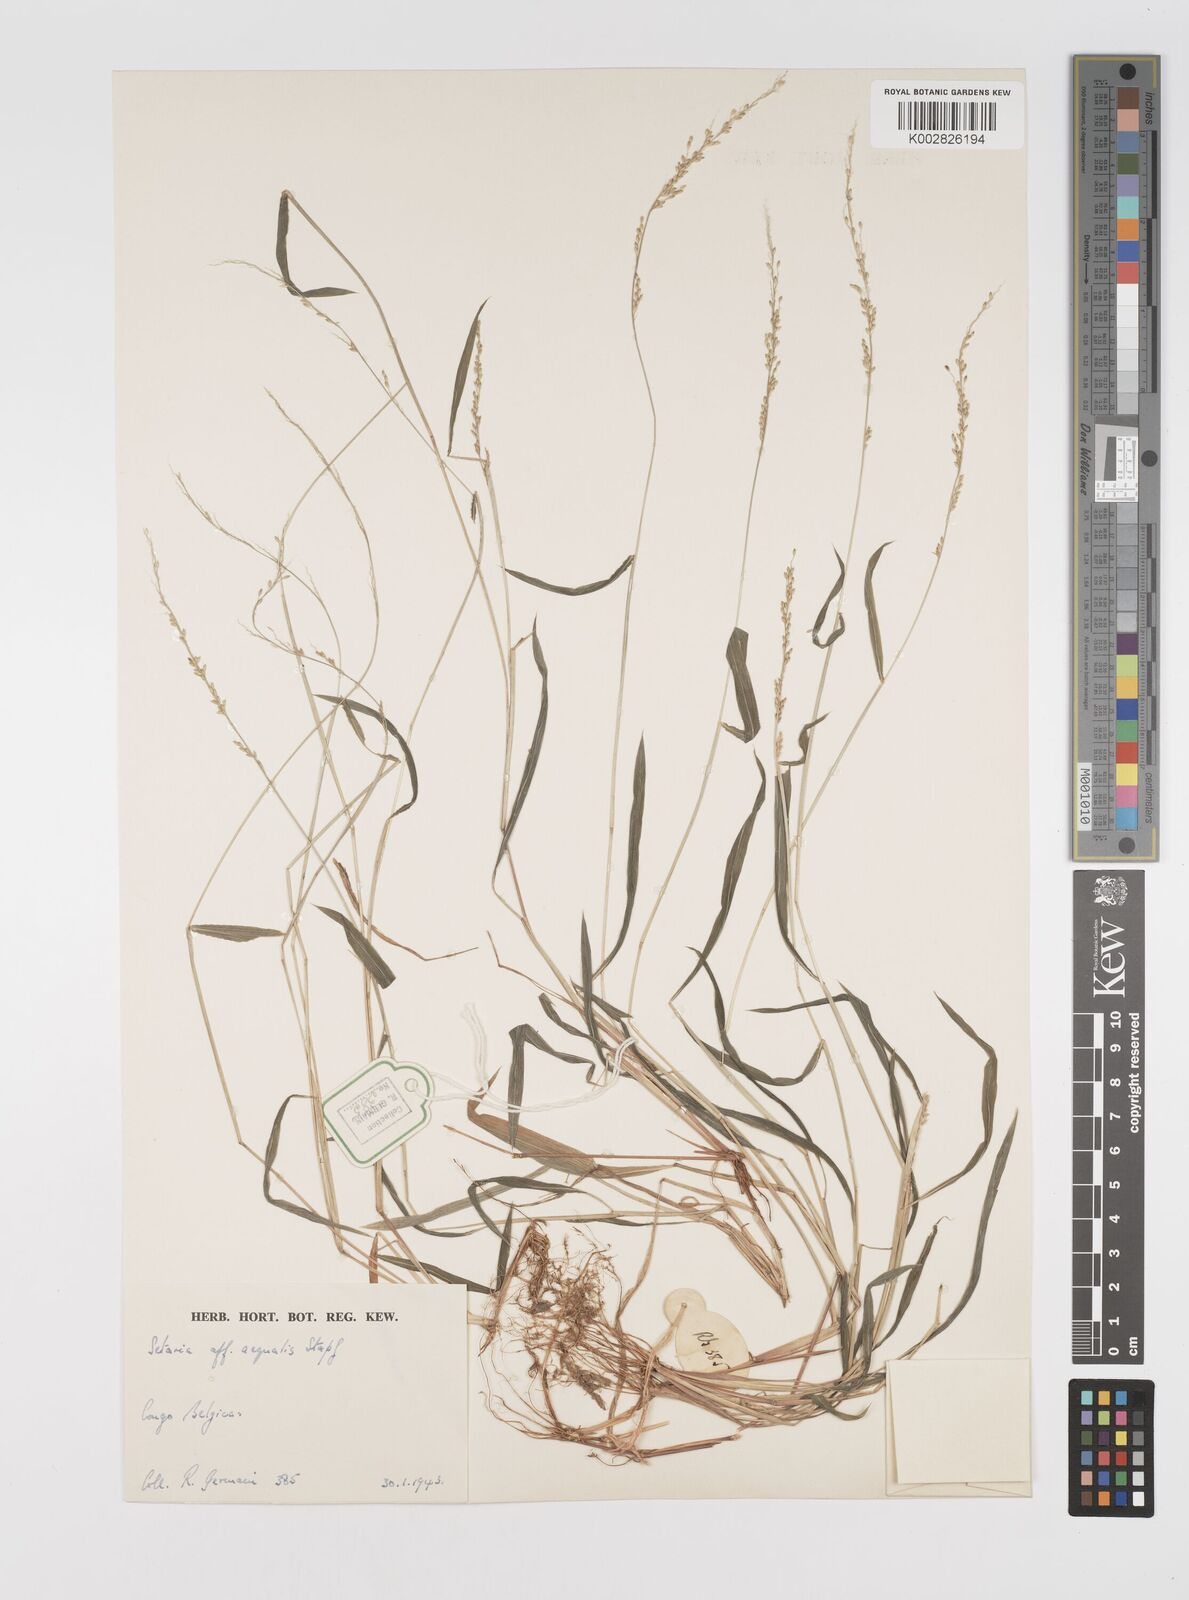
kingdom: Plantae
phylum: Tracheophyta
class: Liliopsida
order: Poales
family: Poaceae
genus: Setaria
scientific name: Setaria homonyma
